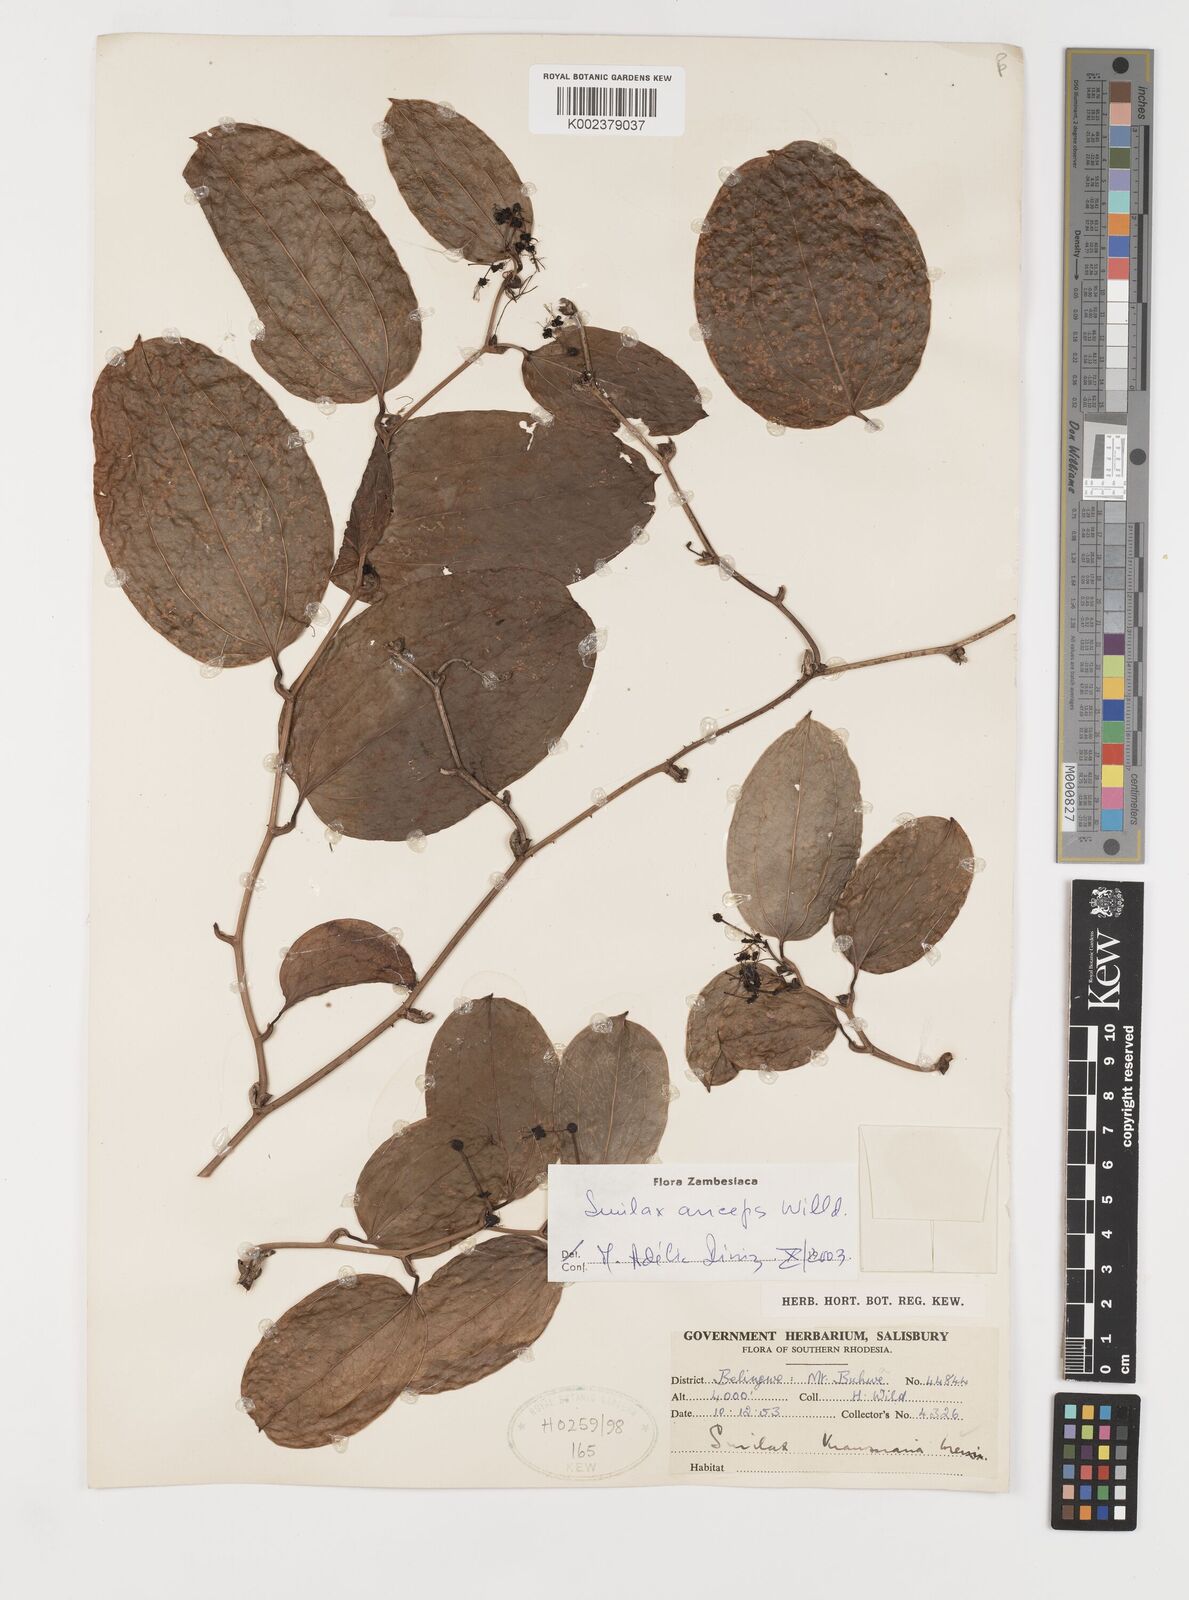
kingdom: Plantae
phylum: Tracheophyta
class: Liliopsida
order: Liliales
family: Smilacaceae
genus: Smilax
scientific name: Smilax anceps
